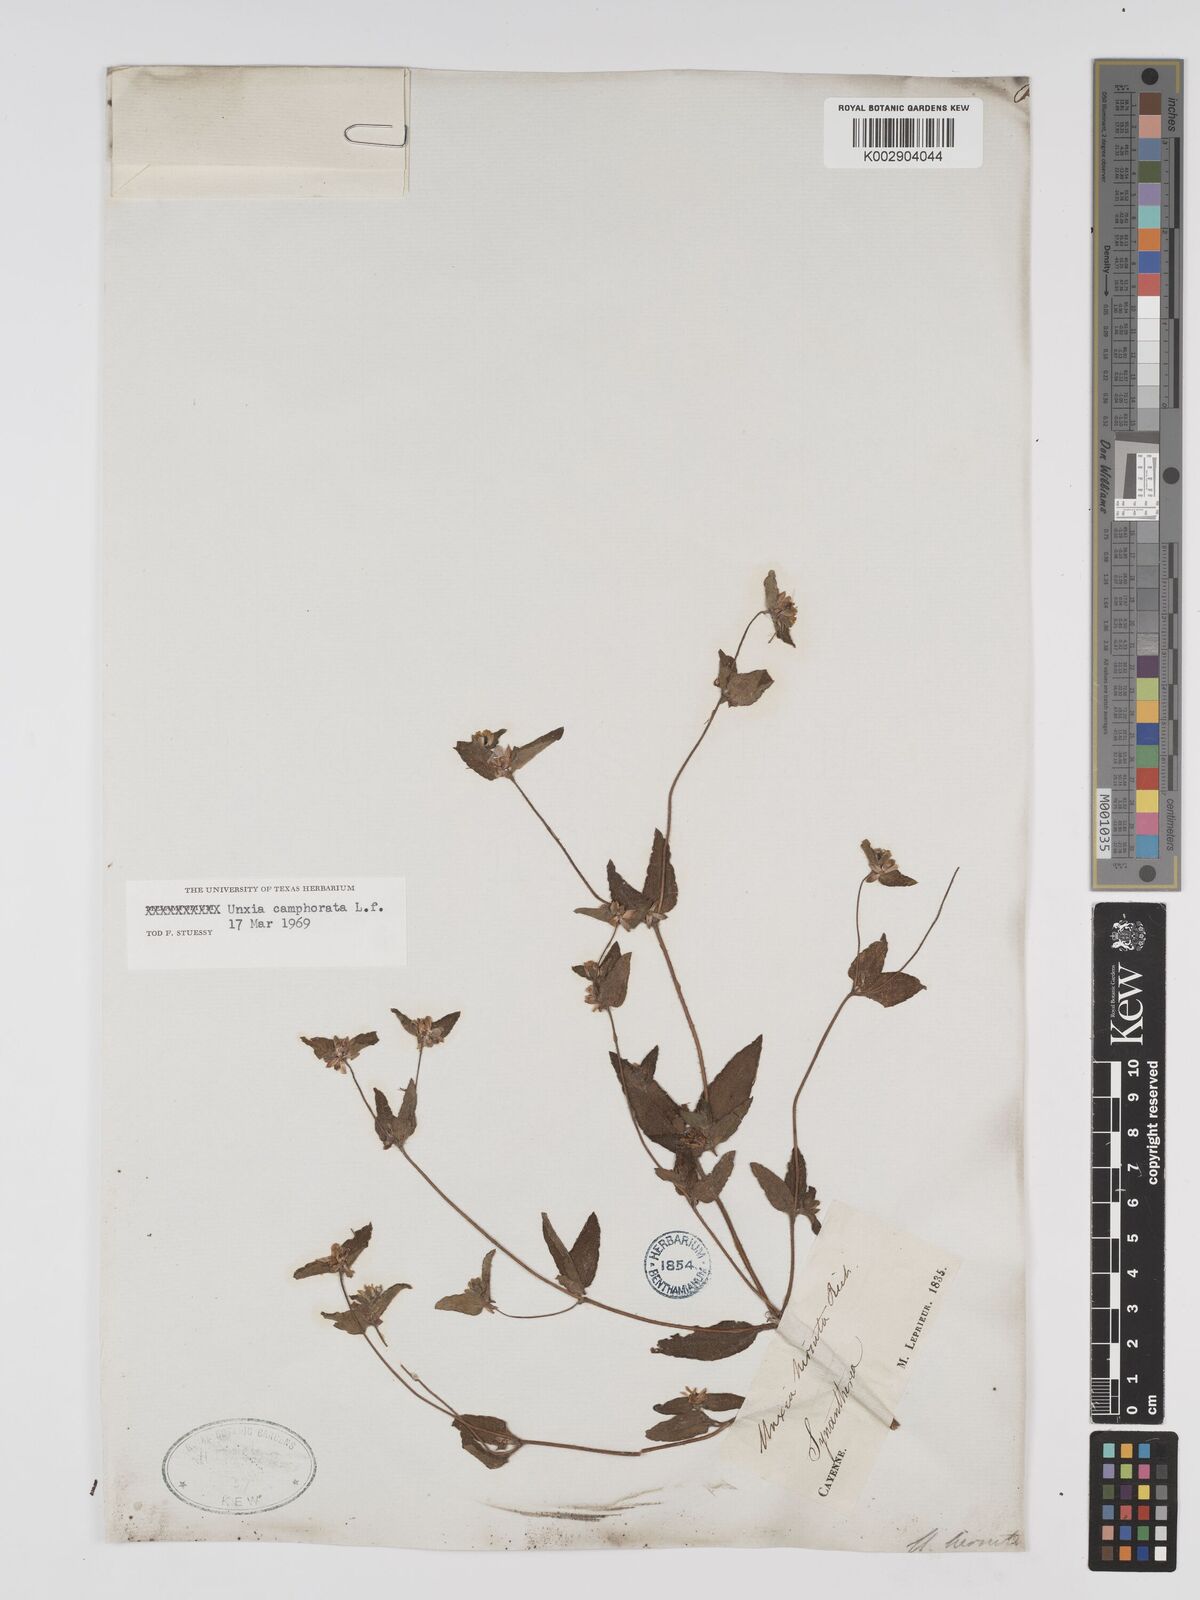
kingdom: Plantae
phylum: Tracheophyta
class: Magnoliopsida
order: Asterales
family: Asteraceae
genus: Unxia
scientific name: Unxia camphorata
